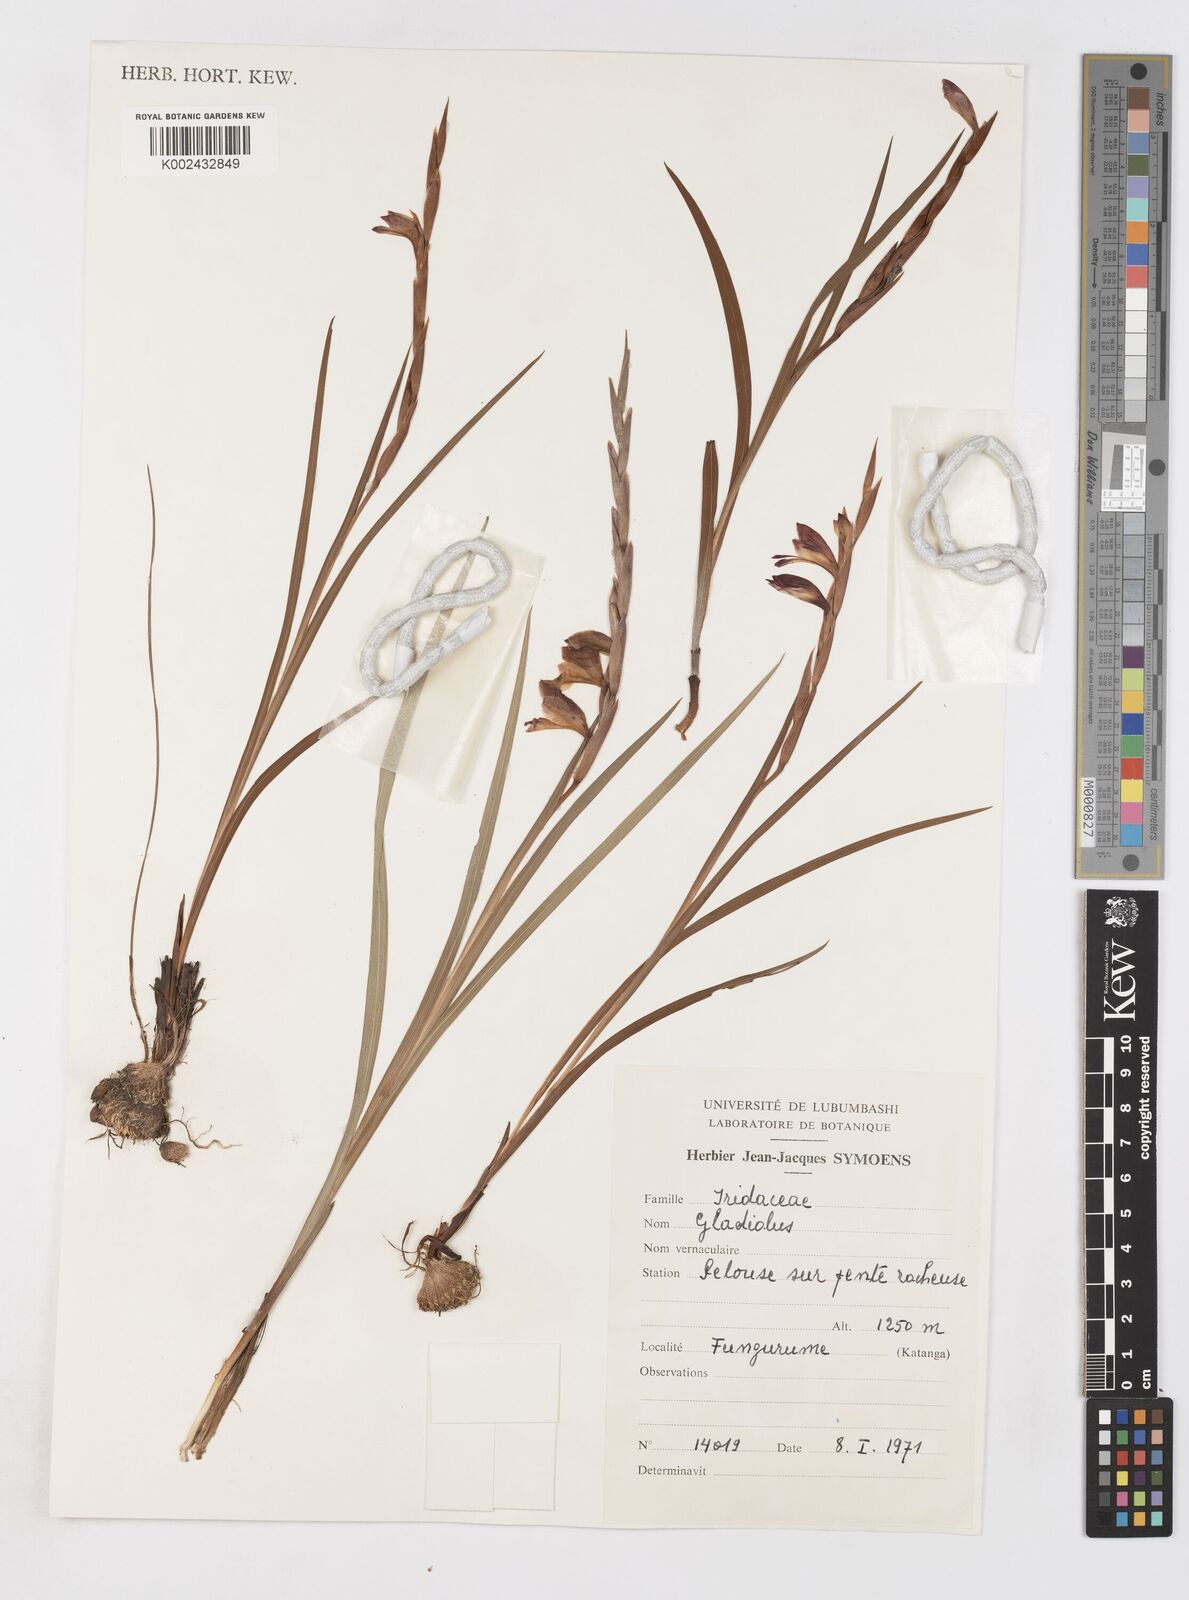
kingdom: Plantae
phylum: Tracheophyta
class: Liliopsida
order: Asparagales
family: Iridaceae
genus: Gladiolus
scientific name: Gladiolus gregarius
